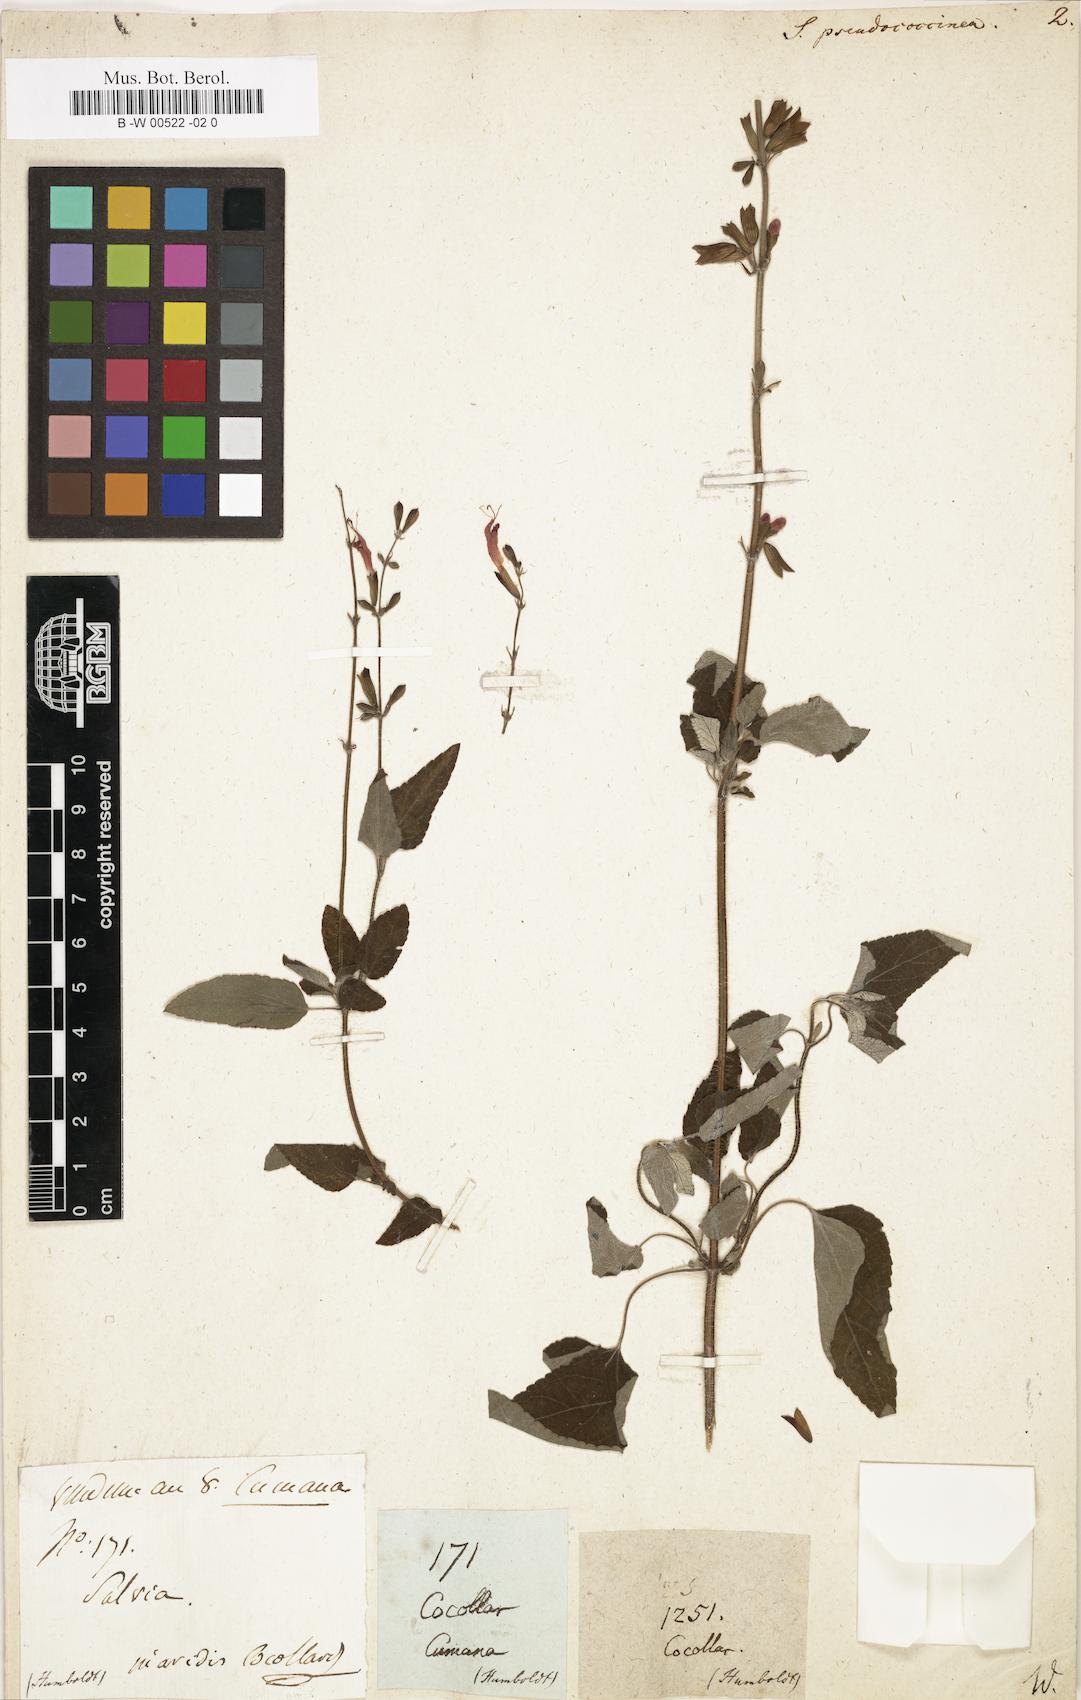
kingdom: Plantae
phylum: Tracheophyta
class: Magnoliopsida
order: Lamiales
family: Lamiaceae
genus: Salvia
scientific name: Salvia coccinea
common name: Blood sage
